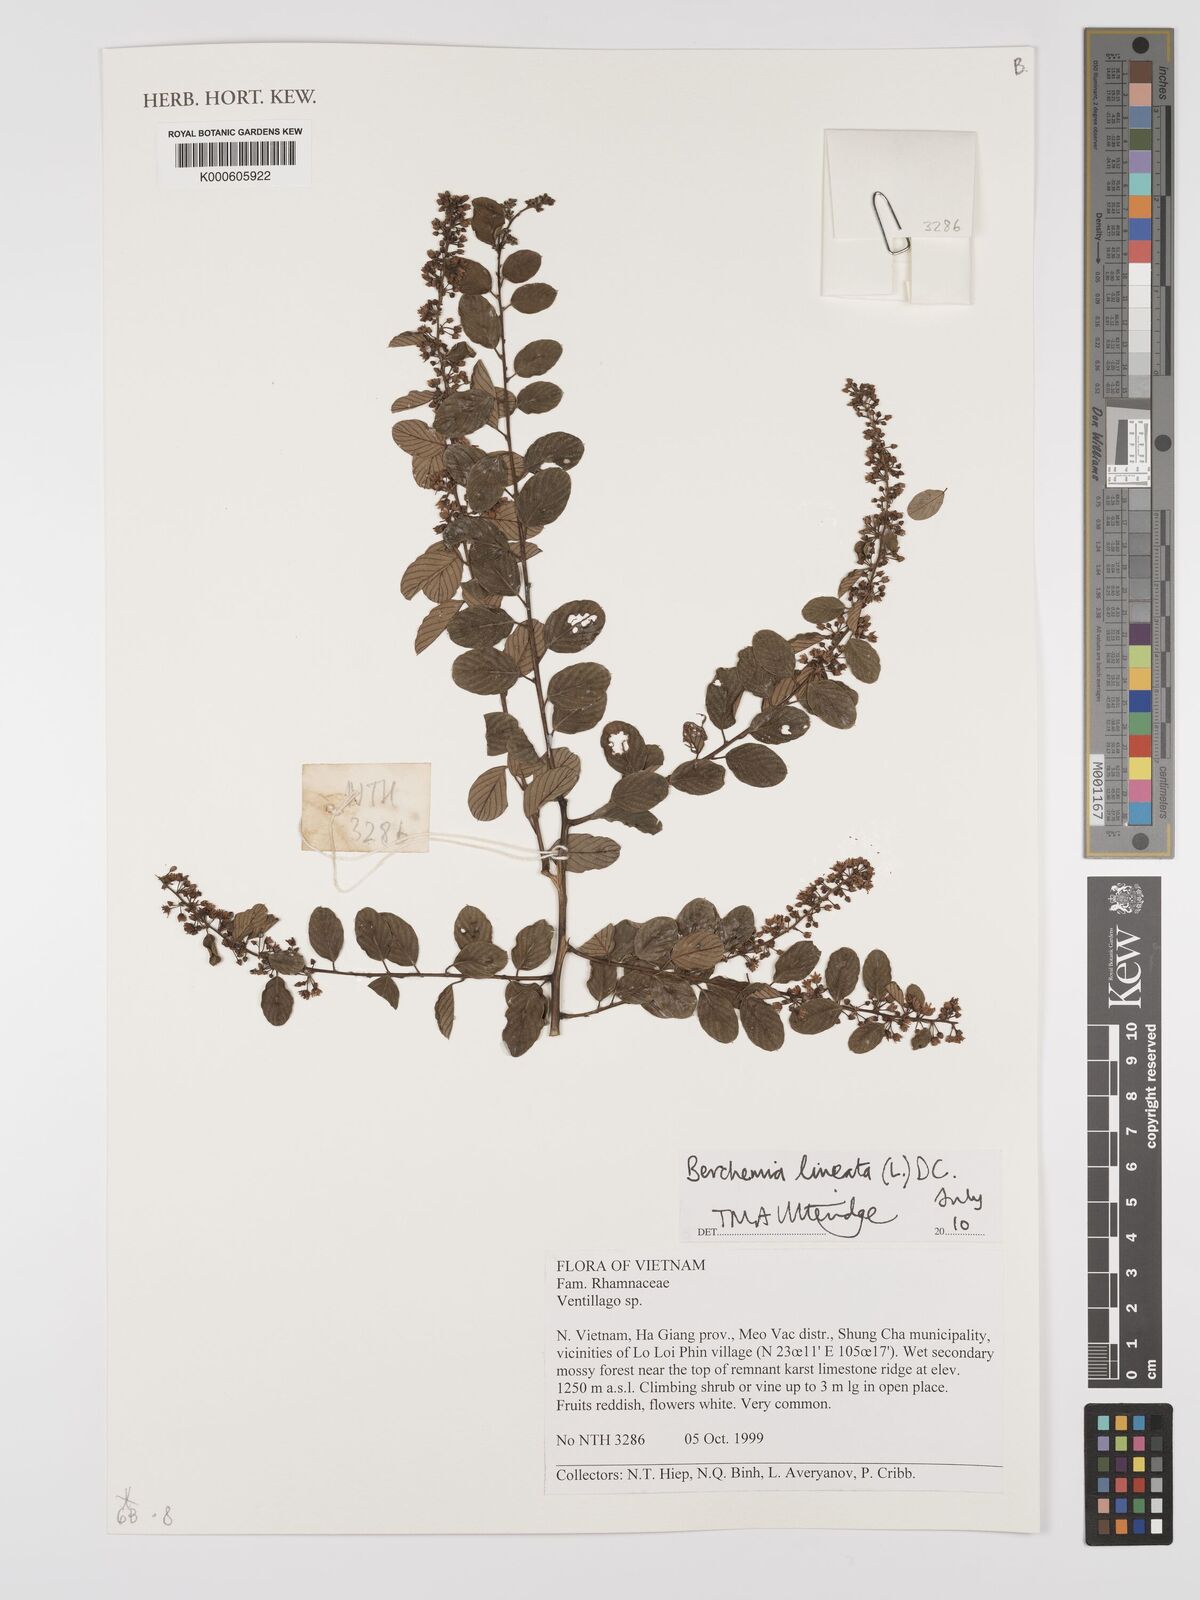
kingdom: Plantae
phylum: Tracheophyta
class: Magnoliopsida
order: Rosales
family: Rhamnaceae
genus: Berchemia
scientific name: Berchemia lineata
